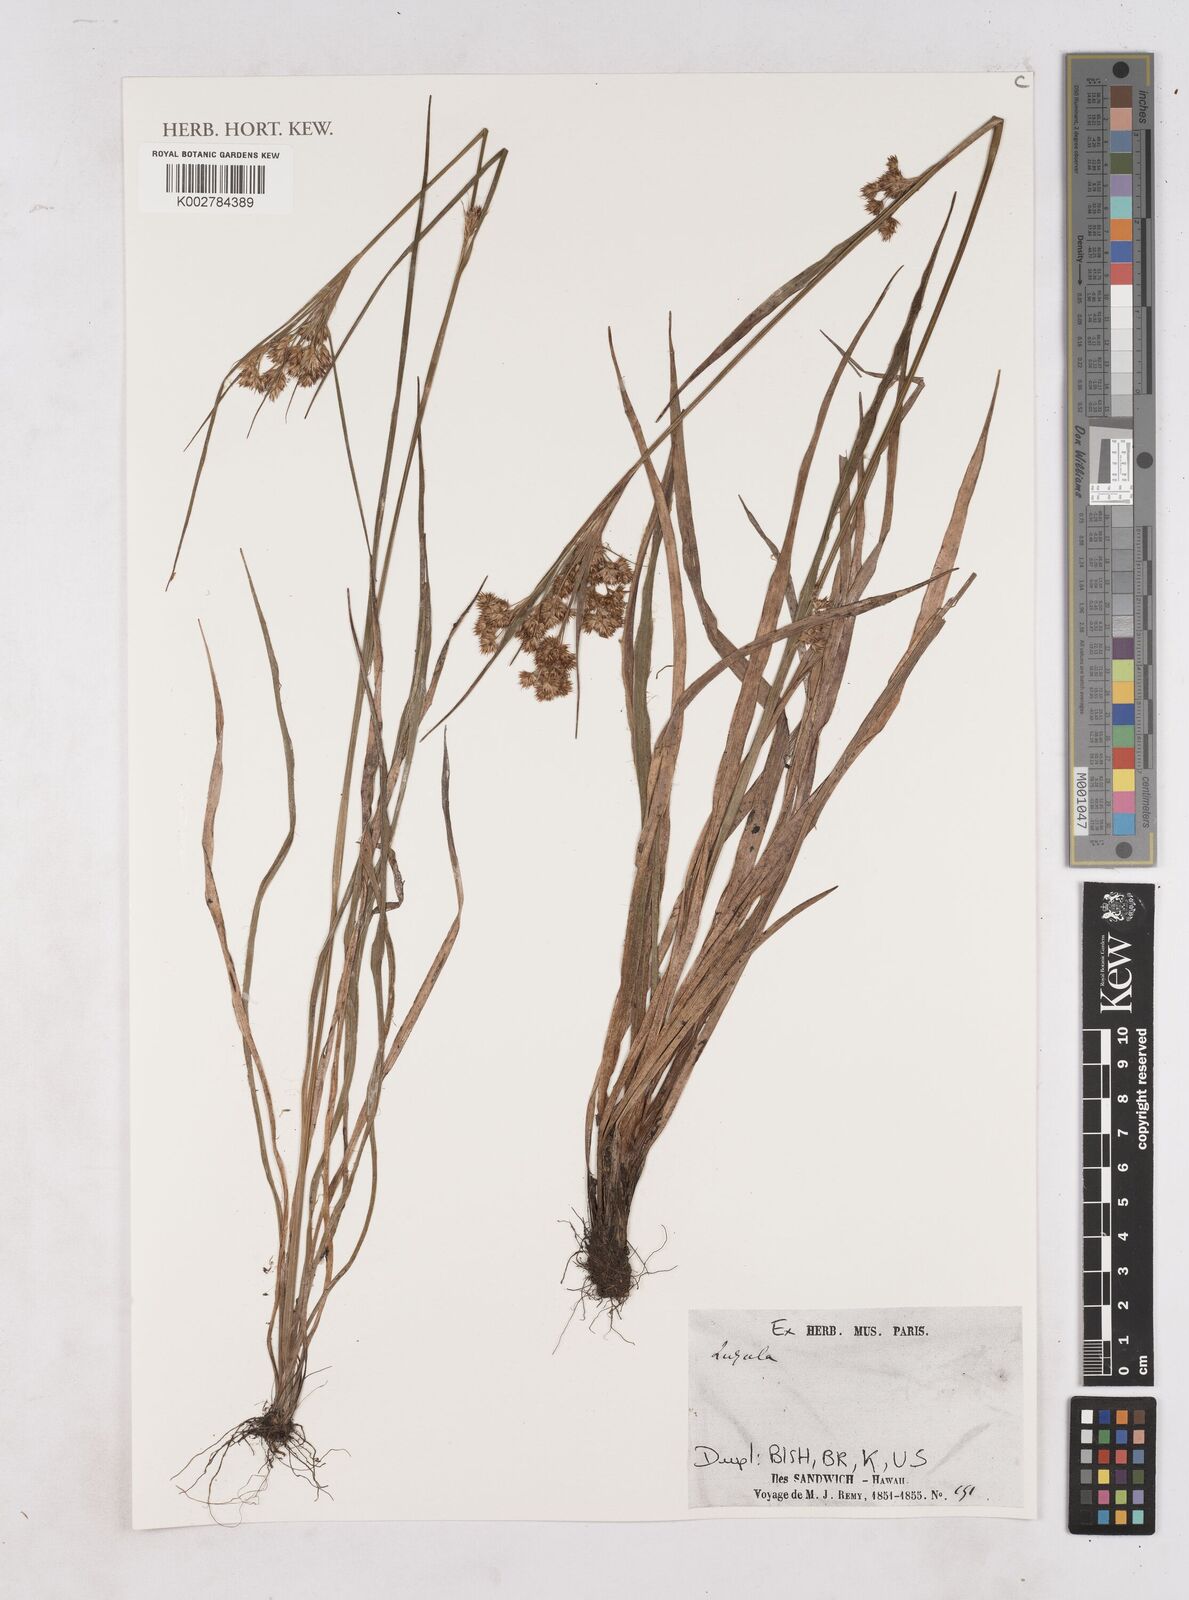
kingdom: Plantae
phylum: Tracheophyta
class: Liliopsida
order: Poales
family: Juncaceae
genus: Luzula
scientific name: Luzula
